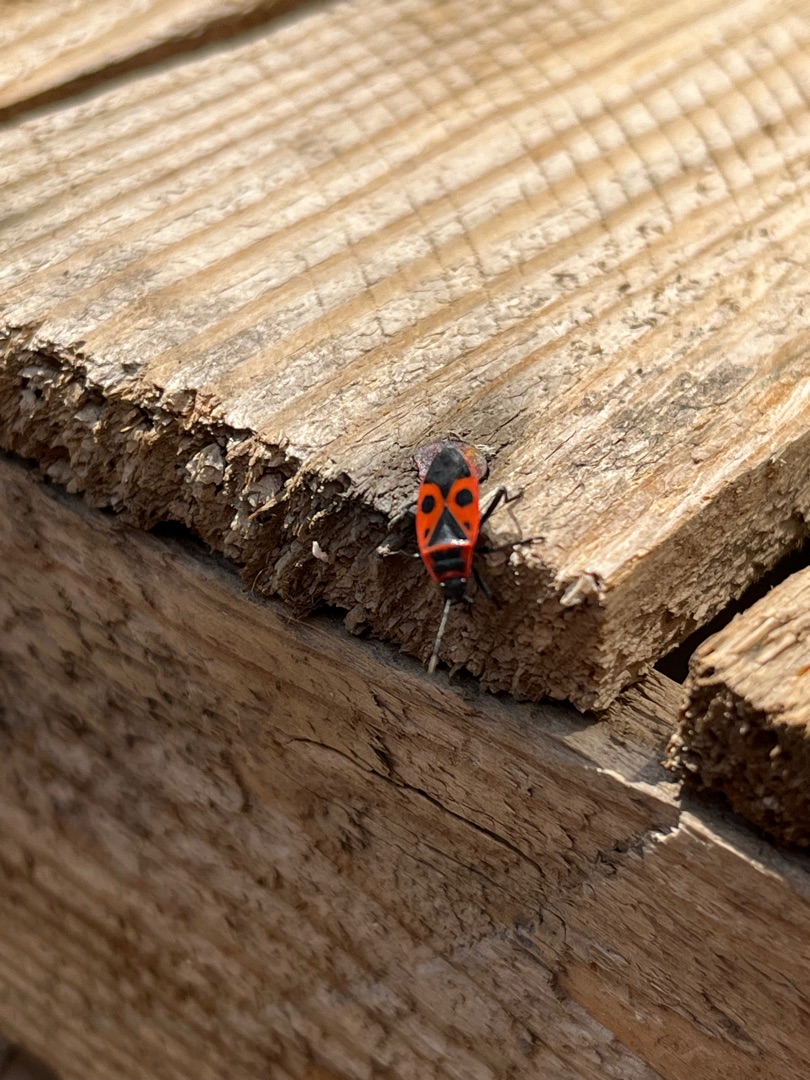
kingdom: Animalia
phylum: Arthropoda
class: Insecta
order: Hemiptera
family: Pyrrhocoridae
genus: Pyrrhocoris
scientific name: Pyrrhocoris apterus
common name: Ildtæge
